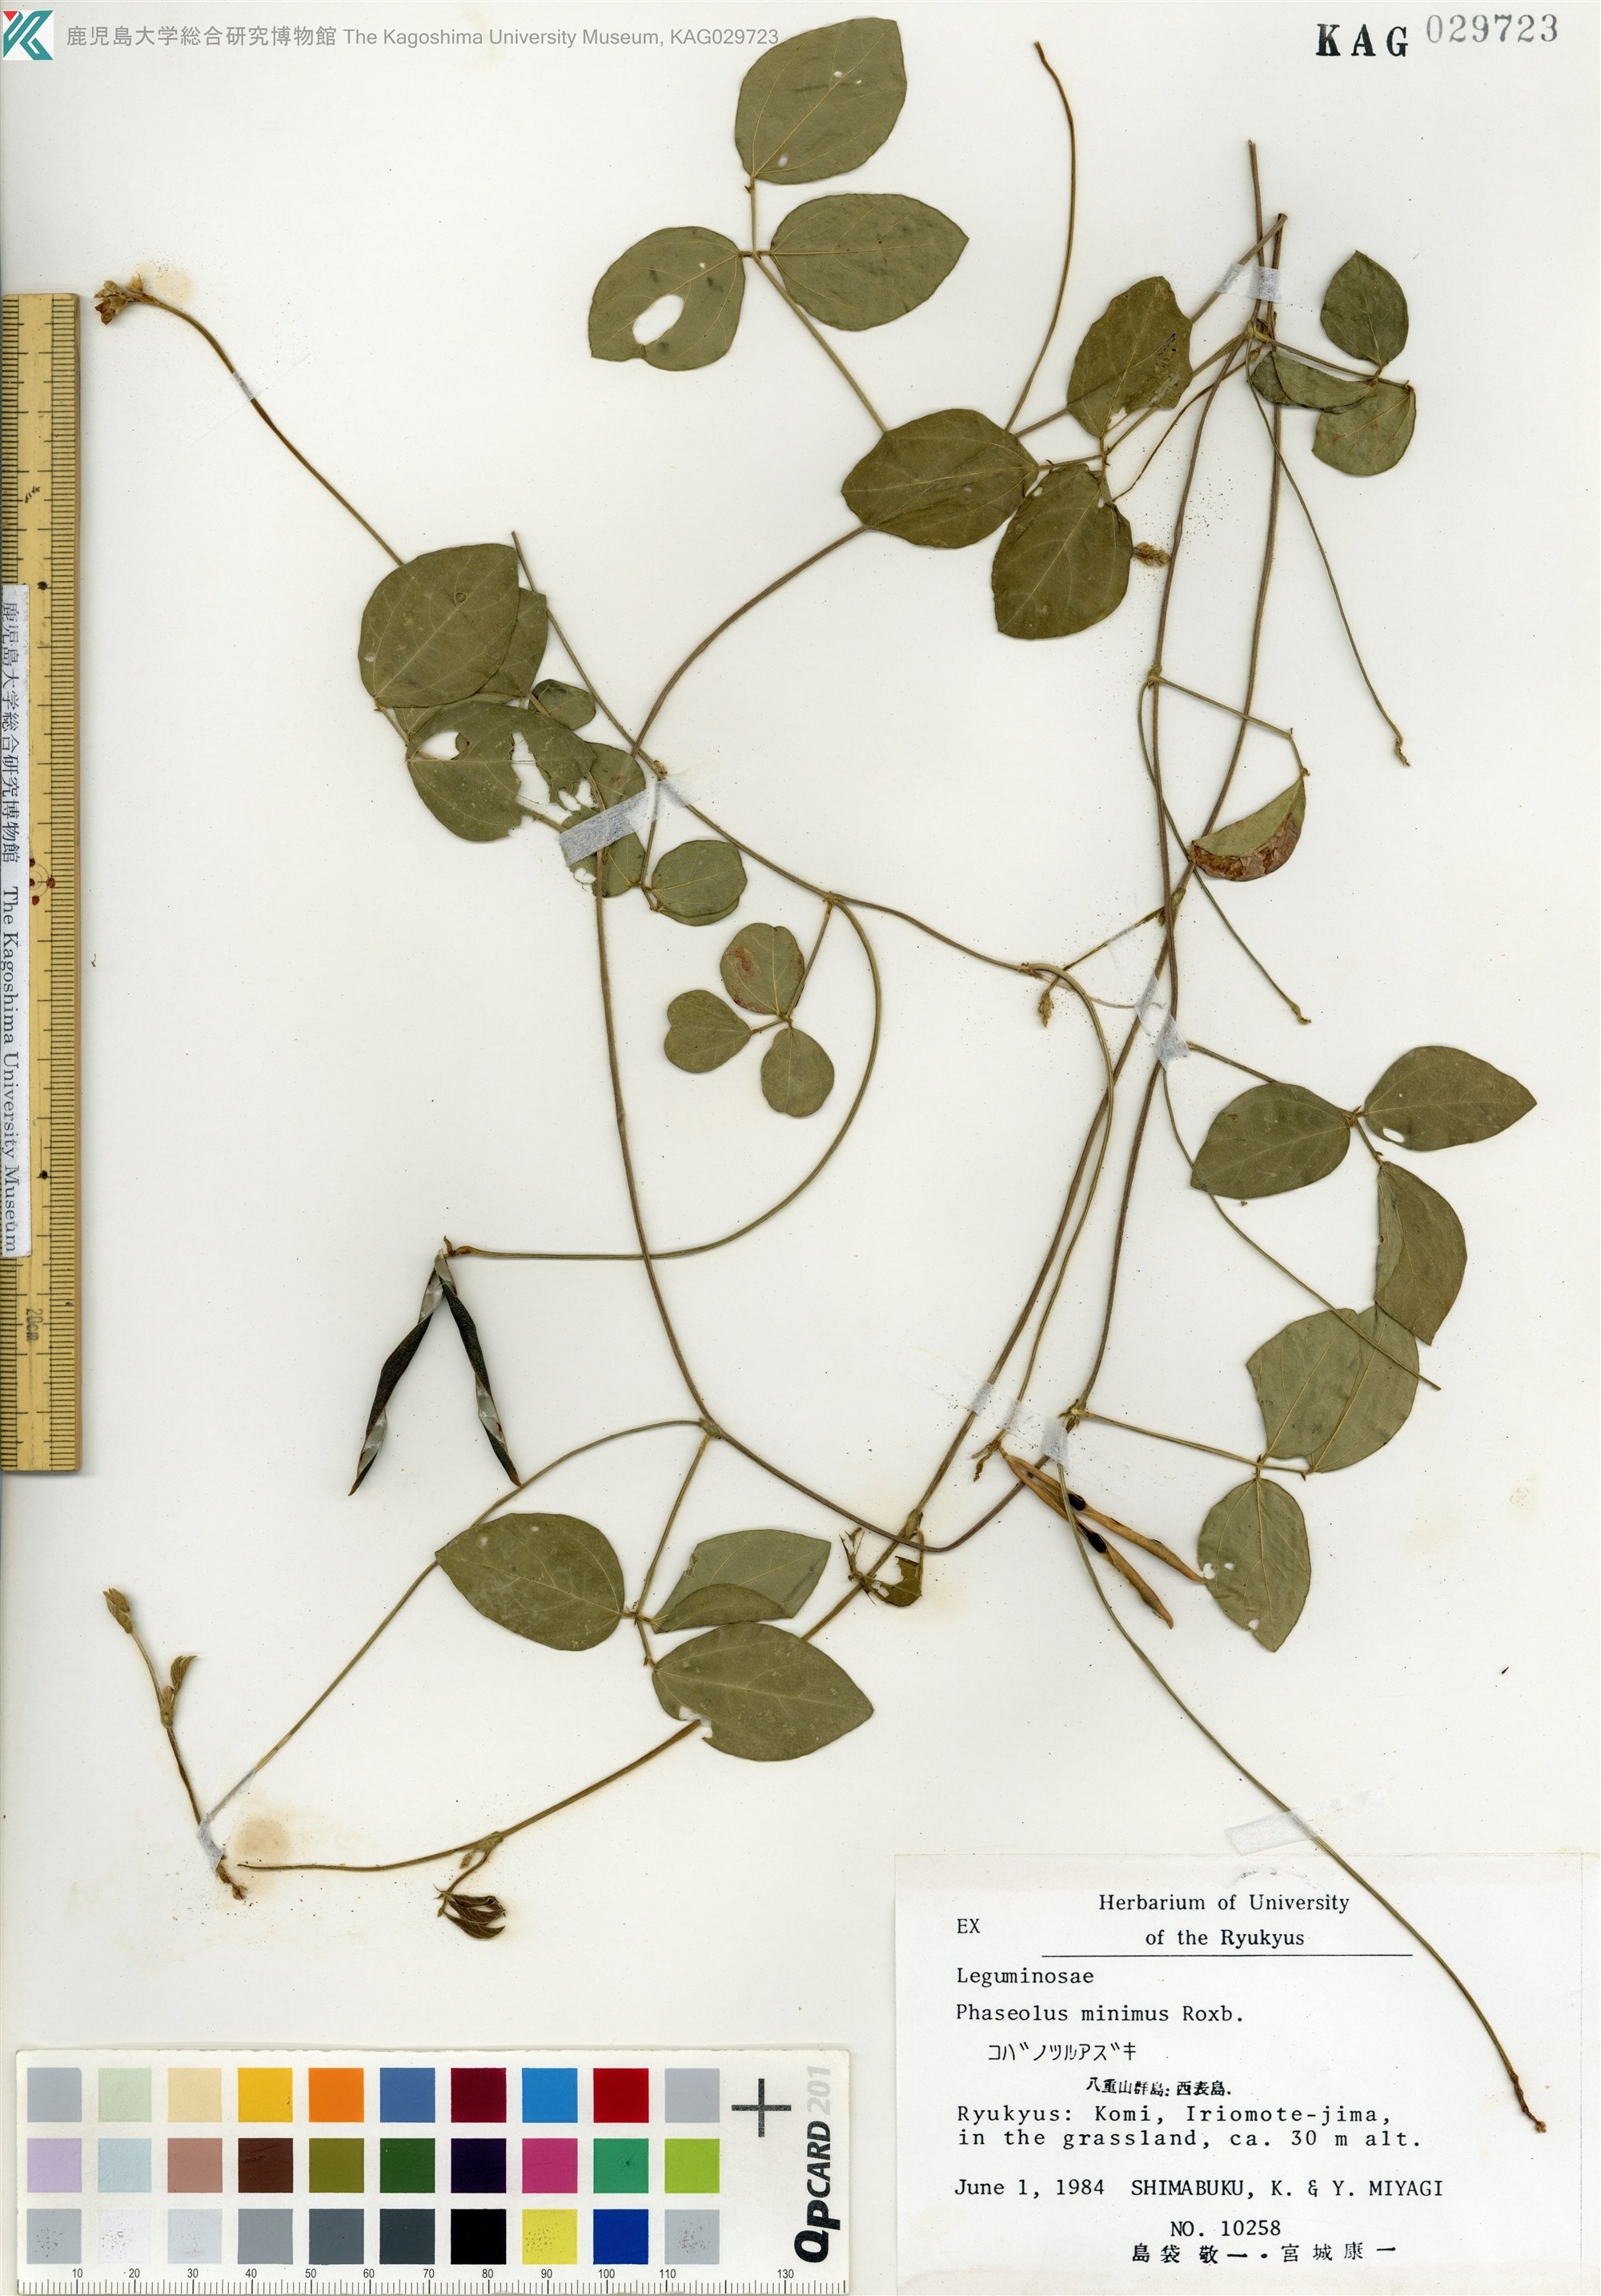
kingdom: Plantae
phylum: Tracheophyta
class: Magnoliopsida
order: Fabales
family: Fabaceae
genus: Vigna
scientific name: Vigna minima
